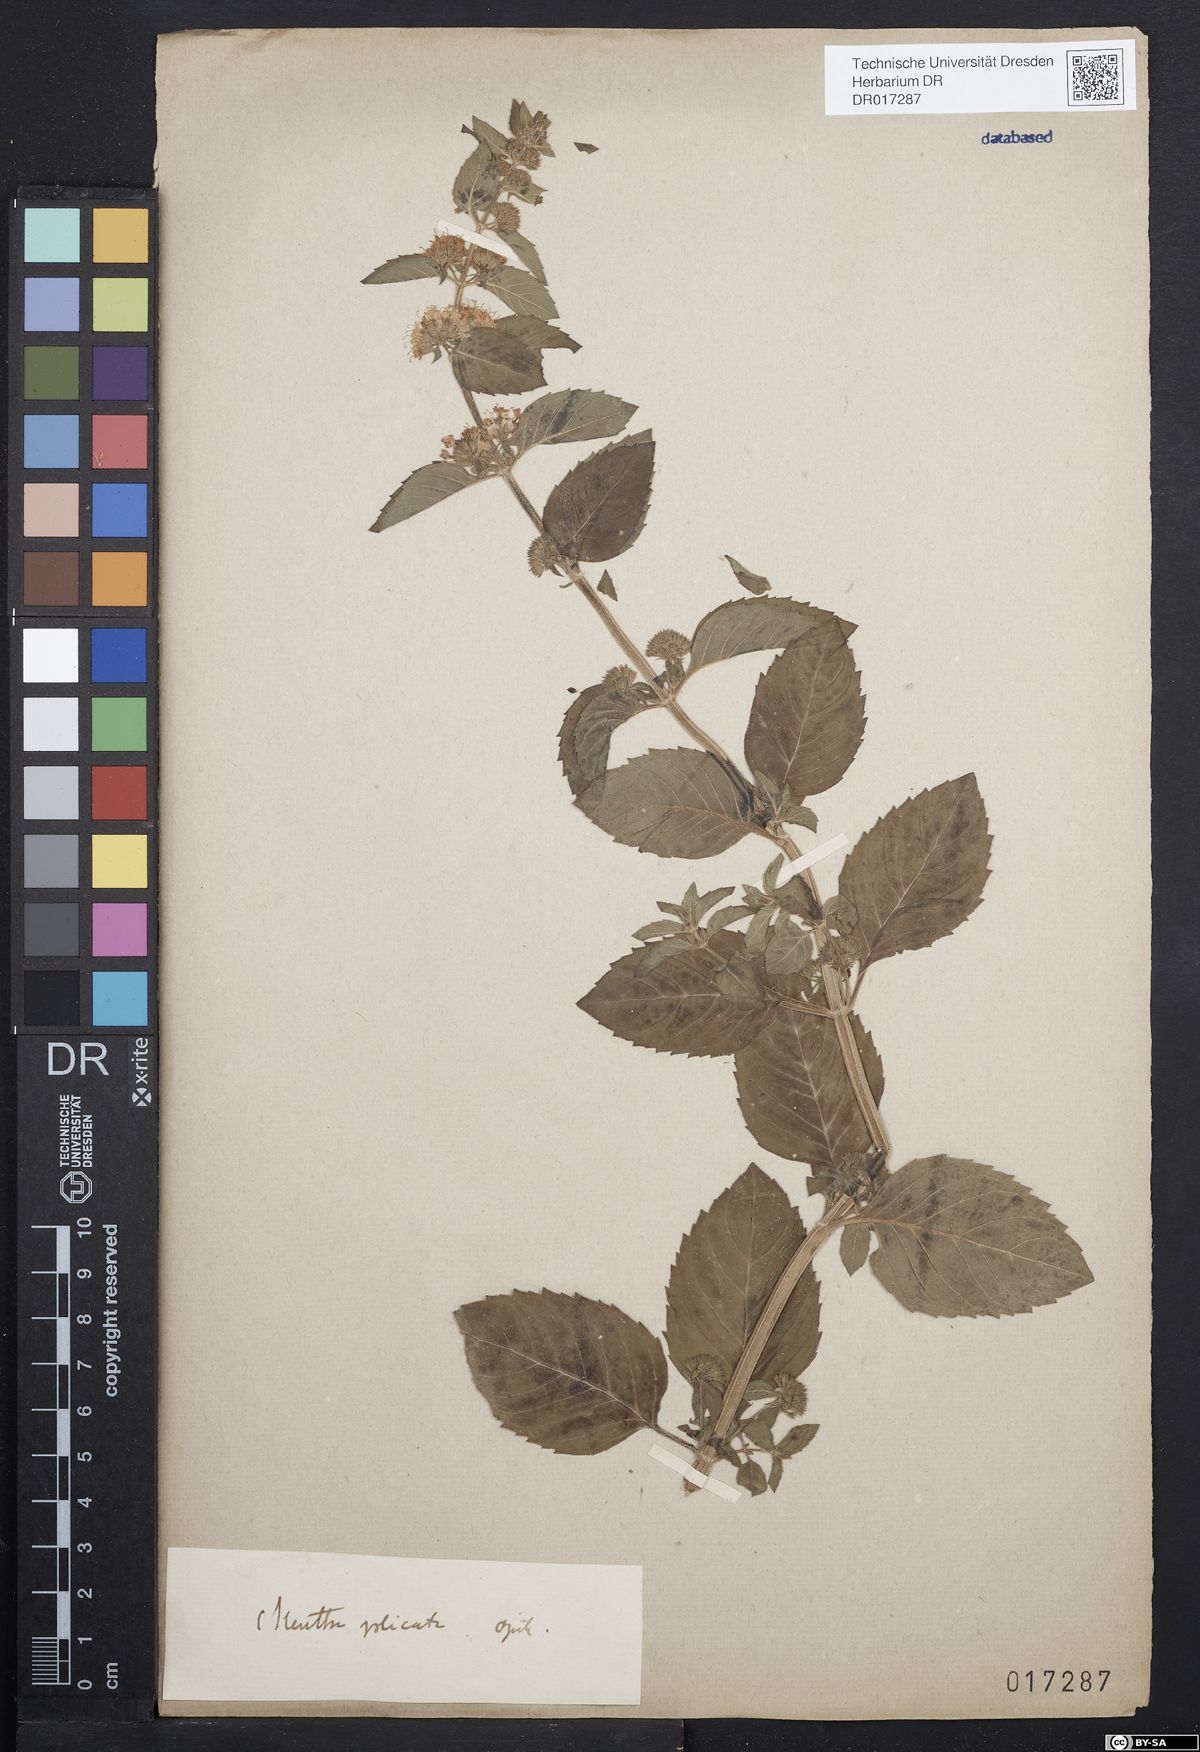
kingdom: Plantae
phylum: Tracheophyta
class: Magnoliopsida
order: Lamiales
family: Lamiaceae
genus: Mentha
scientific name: Mentha verticillata
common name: Mint
